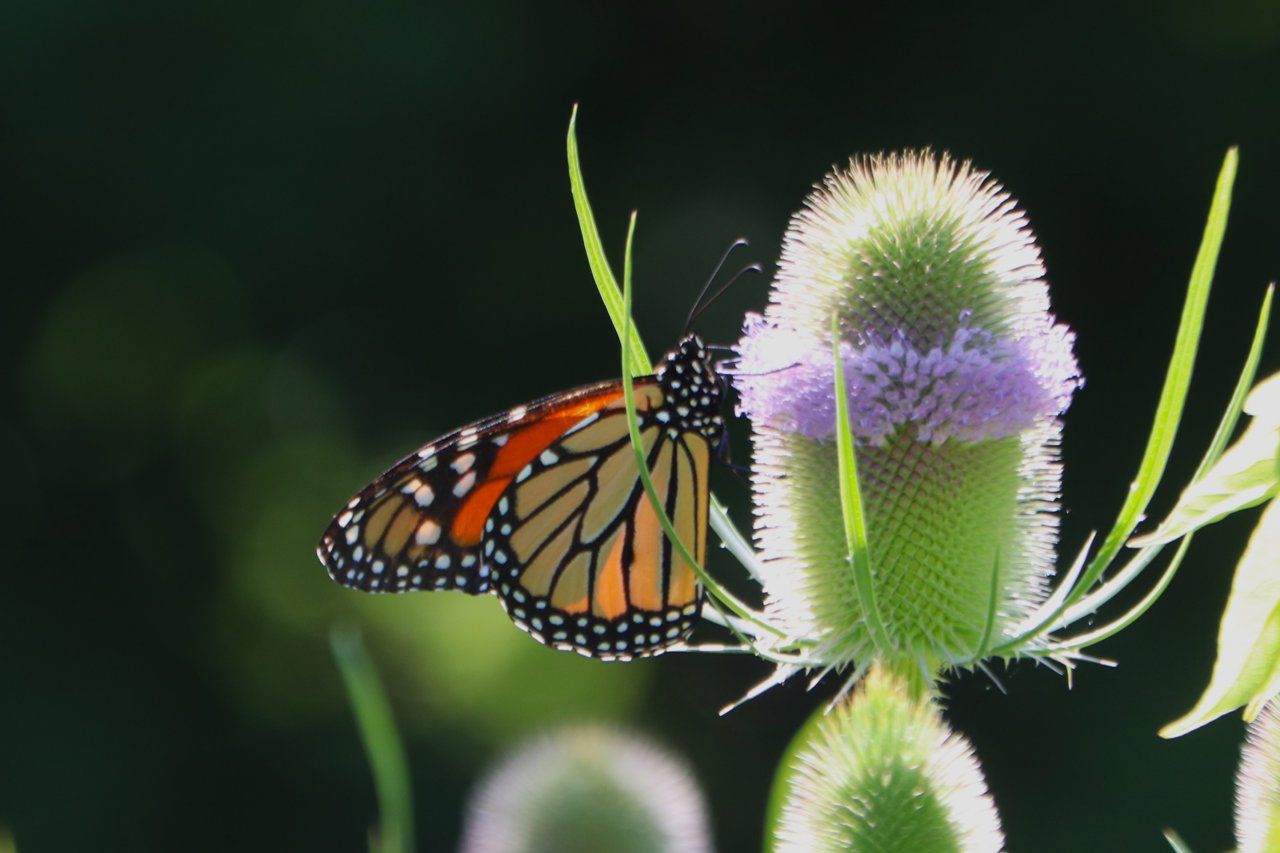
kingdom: Animalia
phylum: Arthropoda
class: Insecta
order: Lepidoptera
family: Nymphalidae
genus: Danaus
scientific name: Danaus plexippus
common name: Monarch
